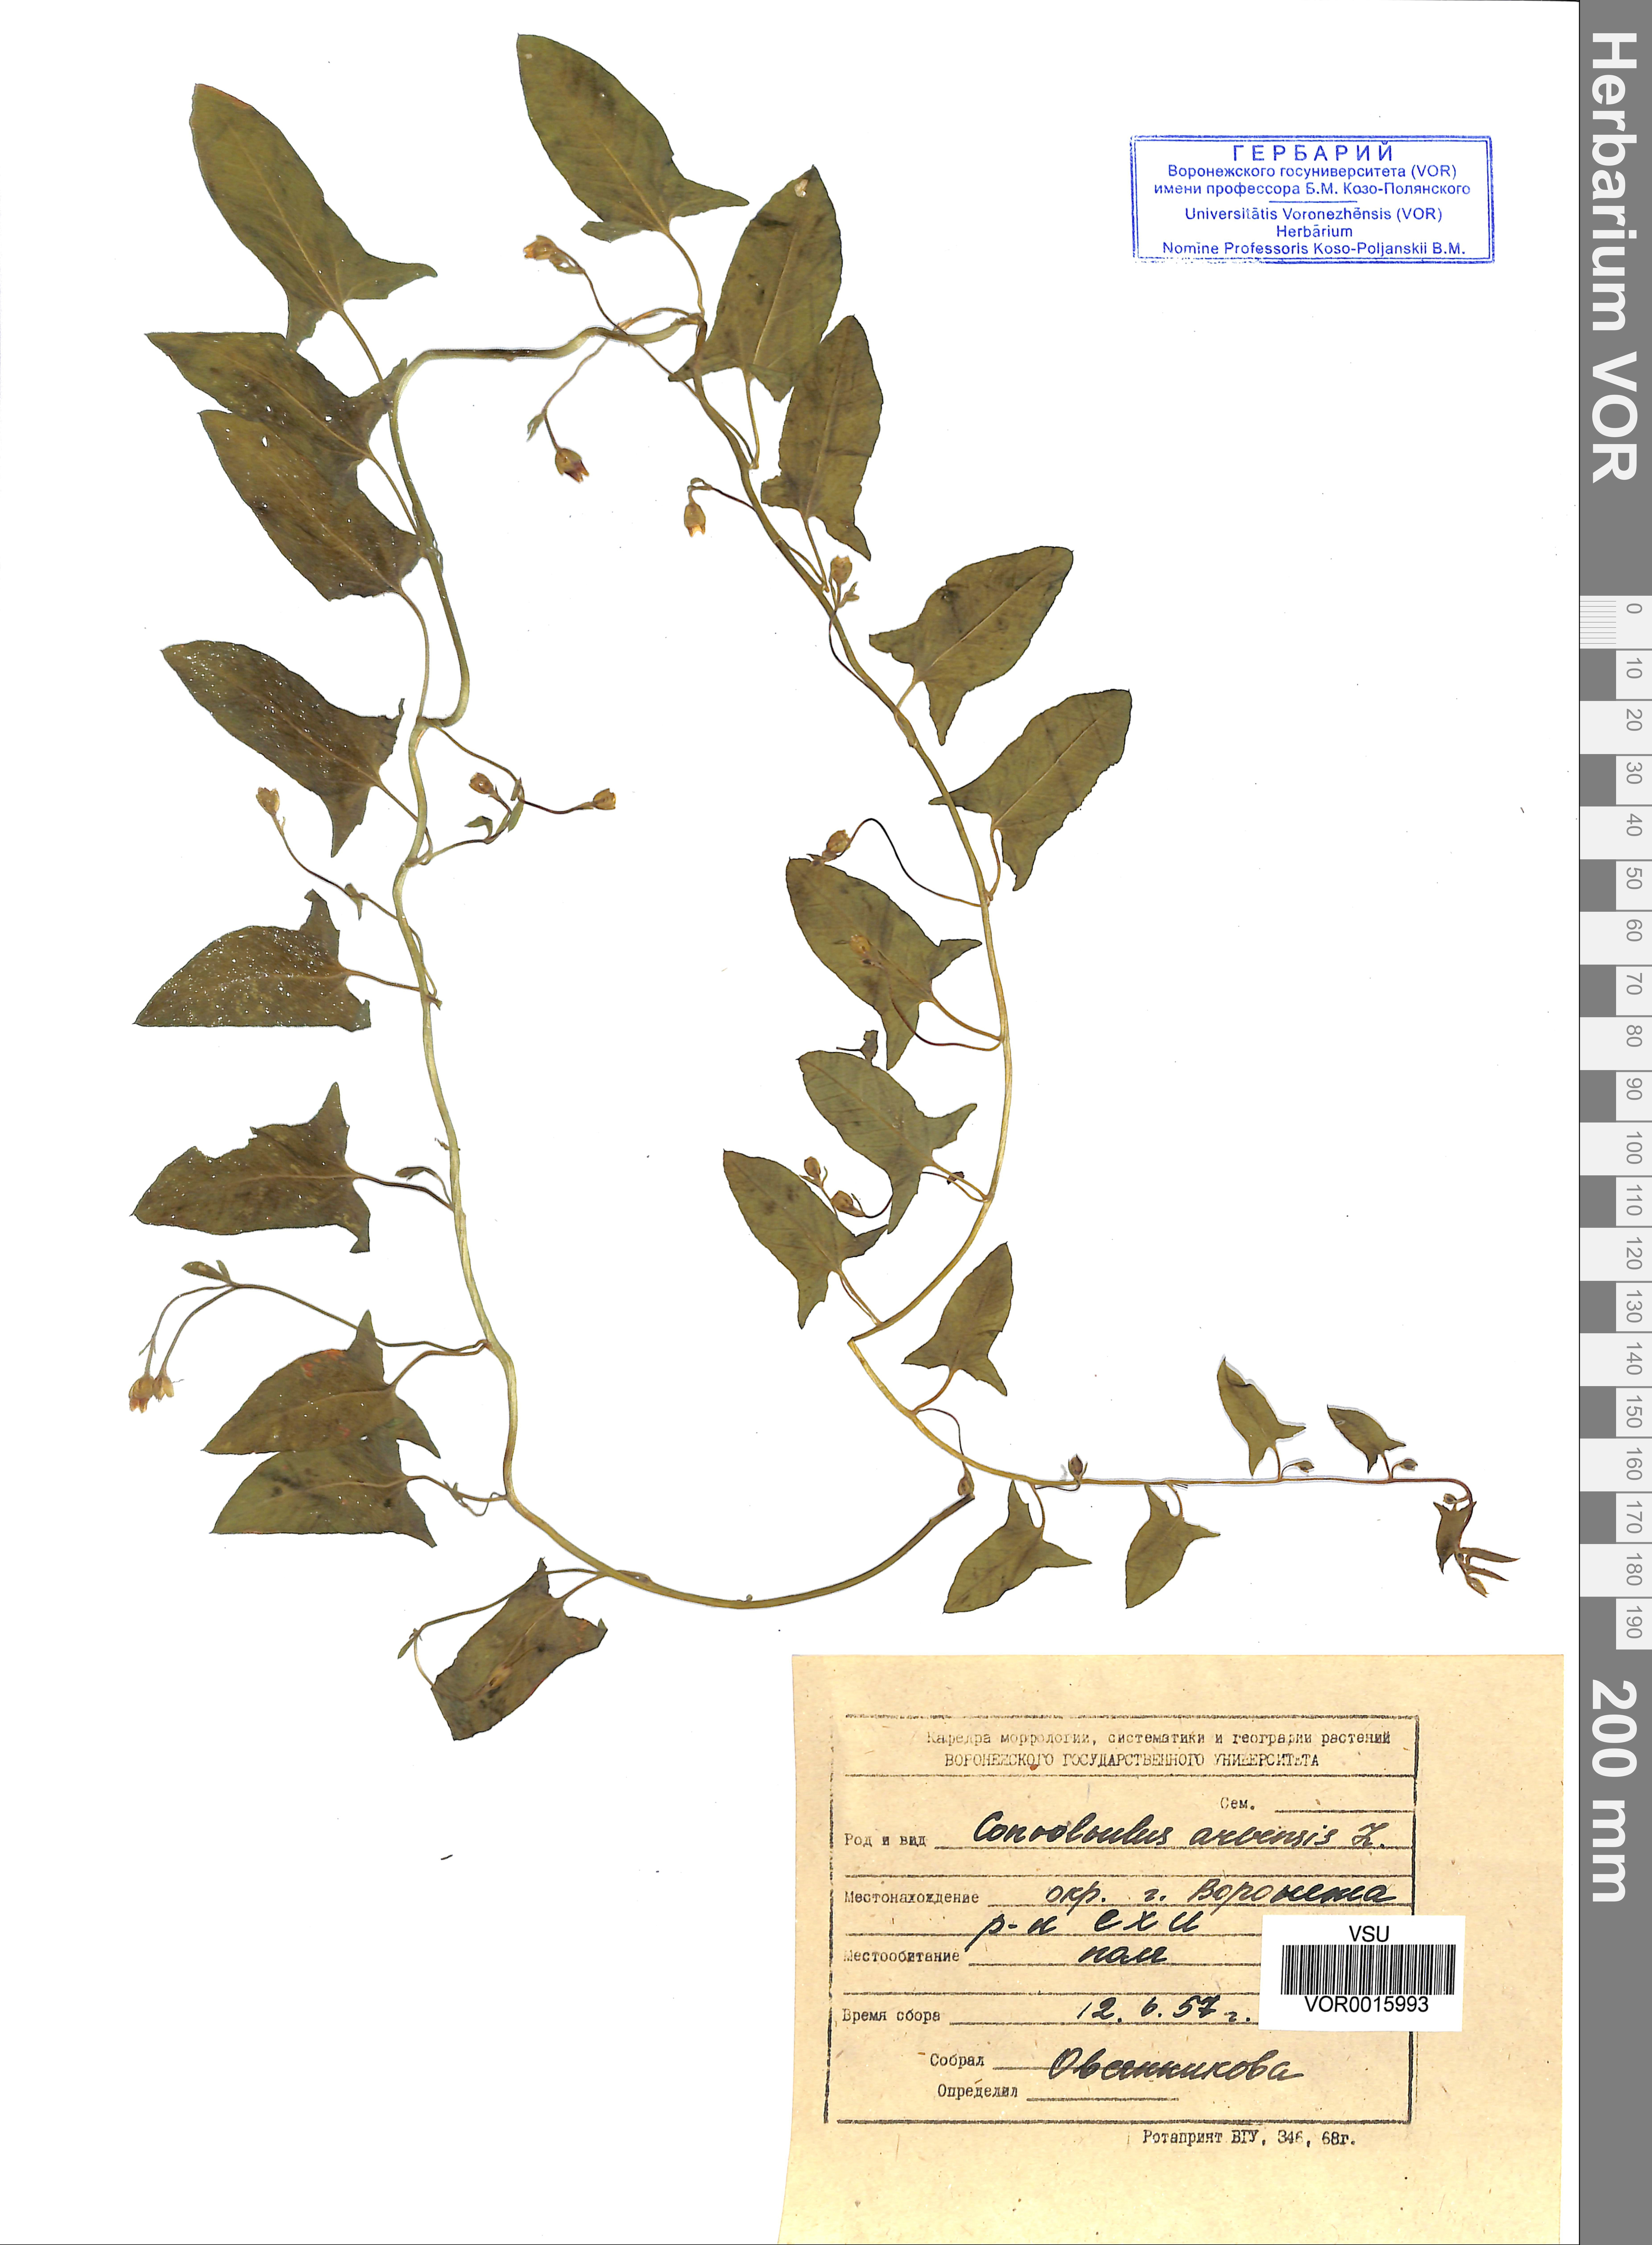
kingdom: Plantae
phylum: Tracheophyta
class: Magnoliopsida
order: Solanales
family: Convolvulaceae
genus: Convolvulus
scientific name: Convolvulus arvensis
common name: Field bindweed
